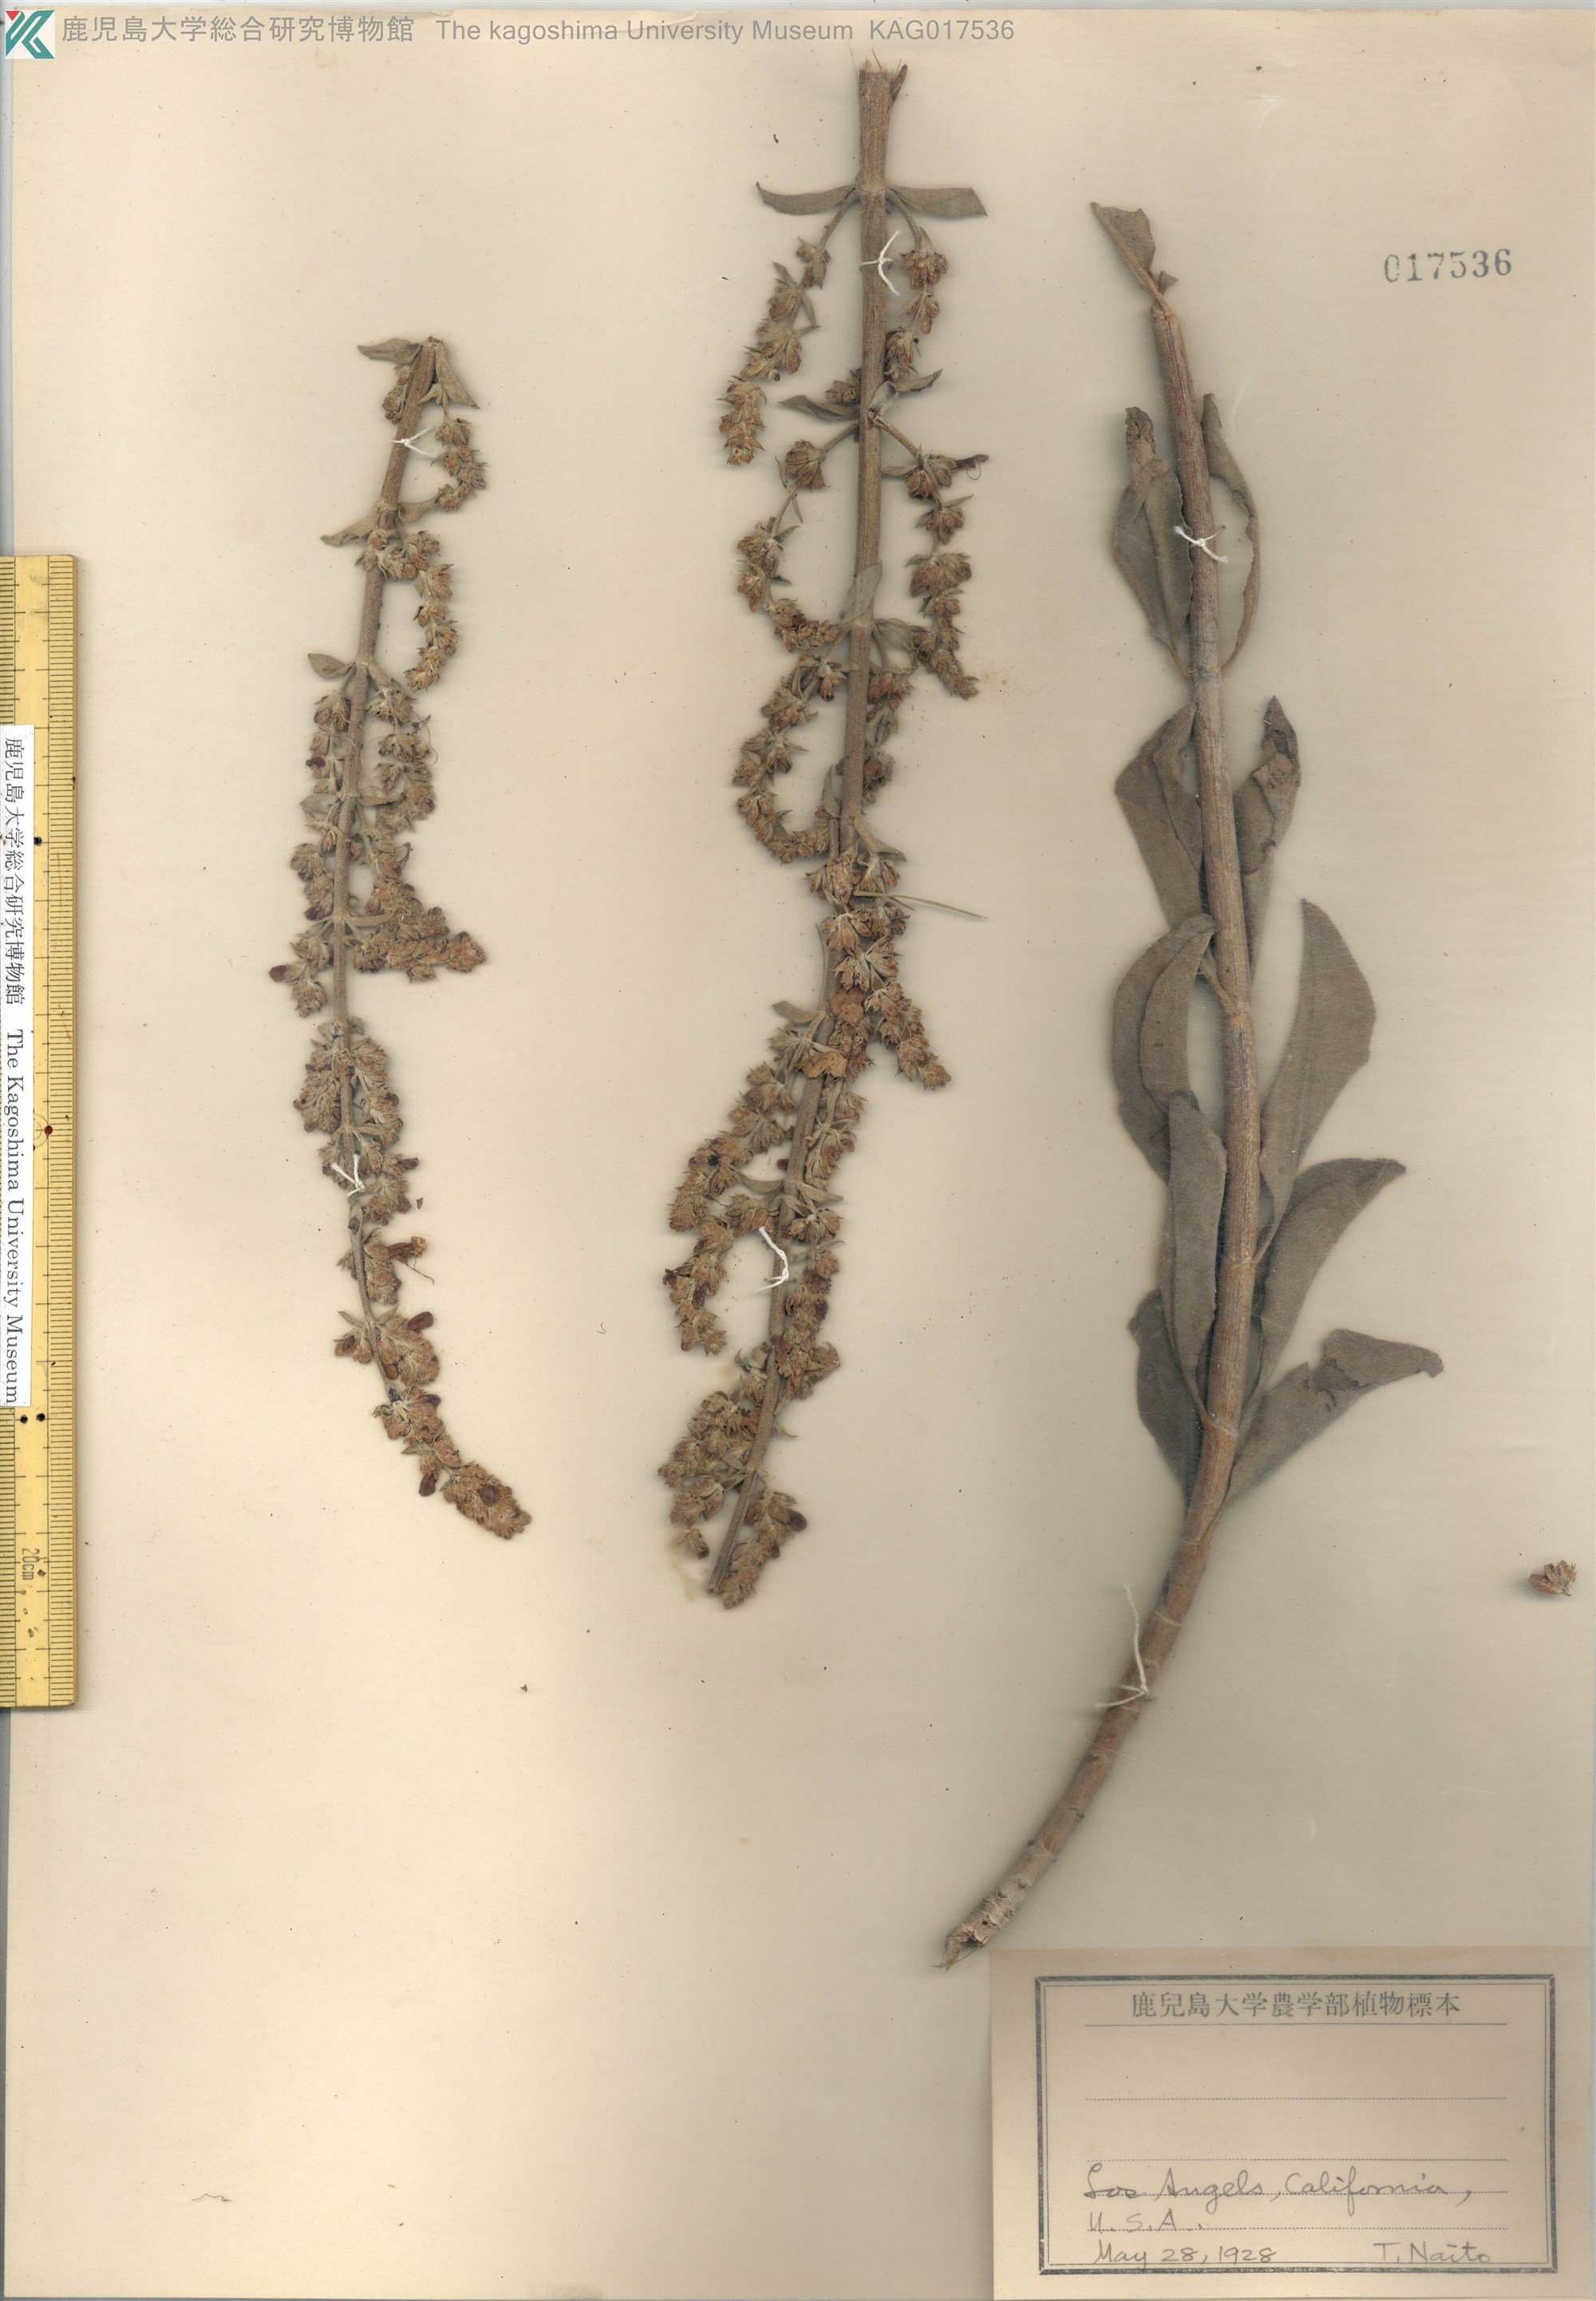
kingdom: Plantae
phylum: Tracheophyta
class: Magnoliopsida
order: Lamiales
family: Lamiaceae
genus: Salvia
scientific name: Salvia apiana
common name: White sage
